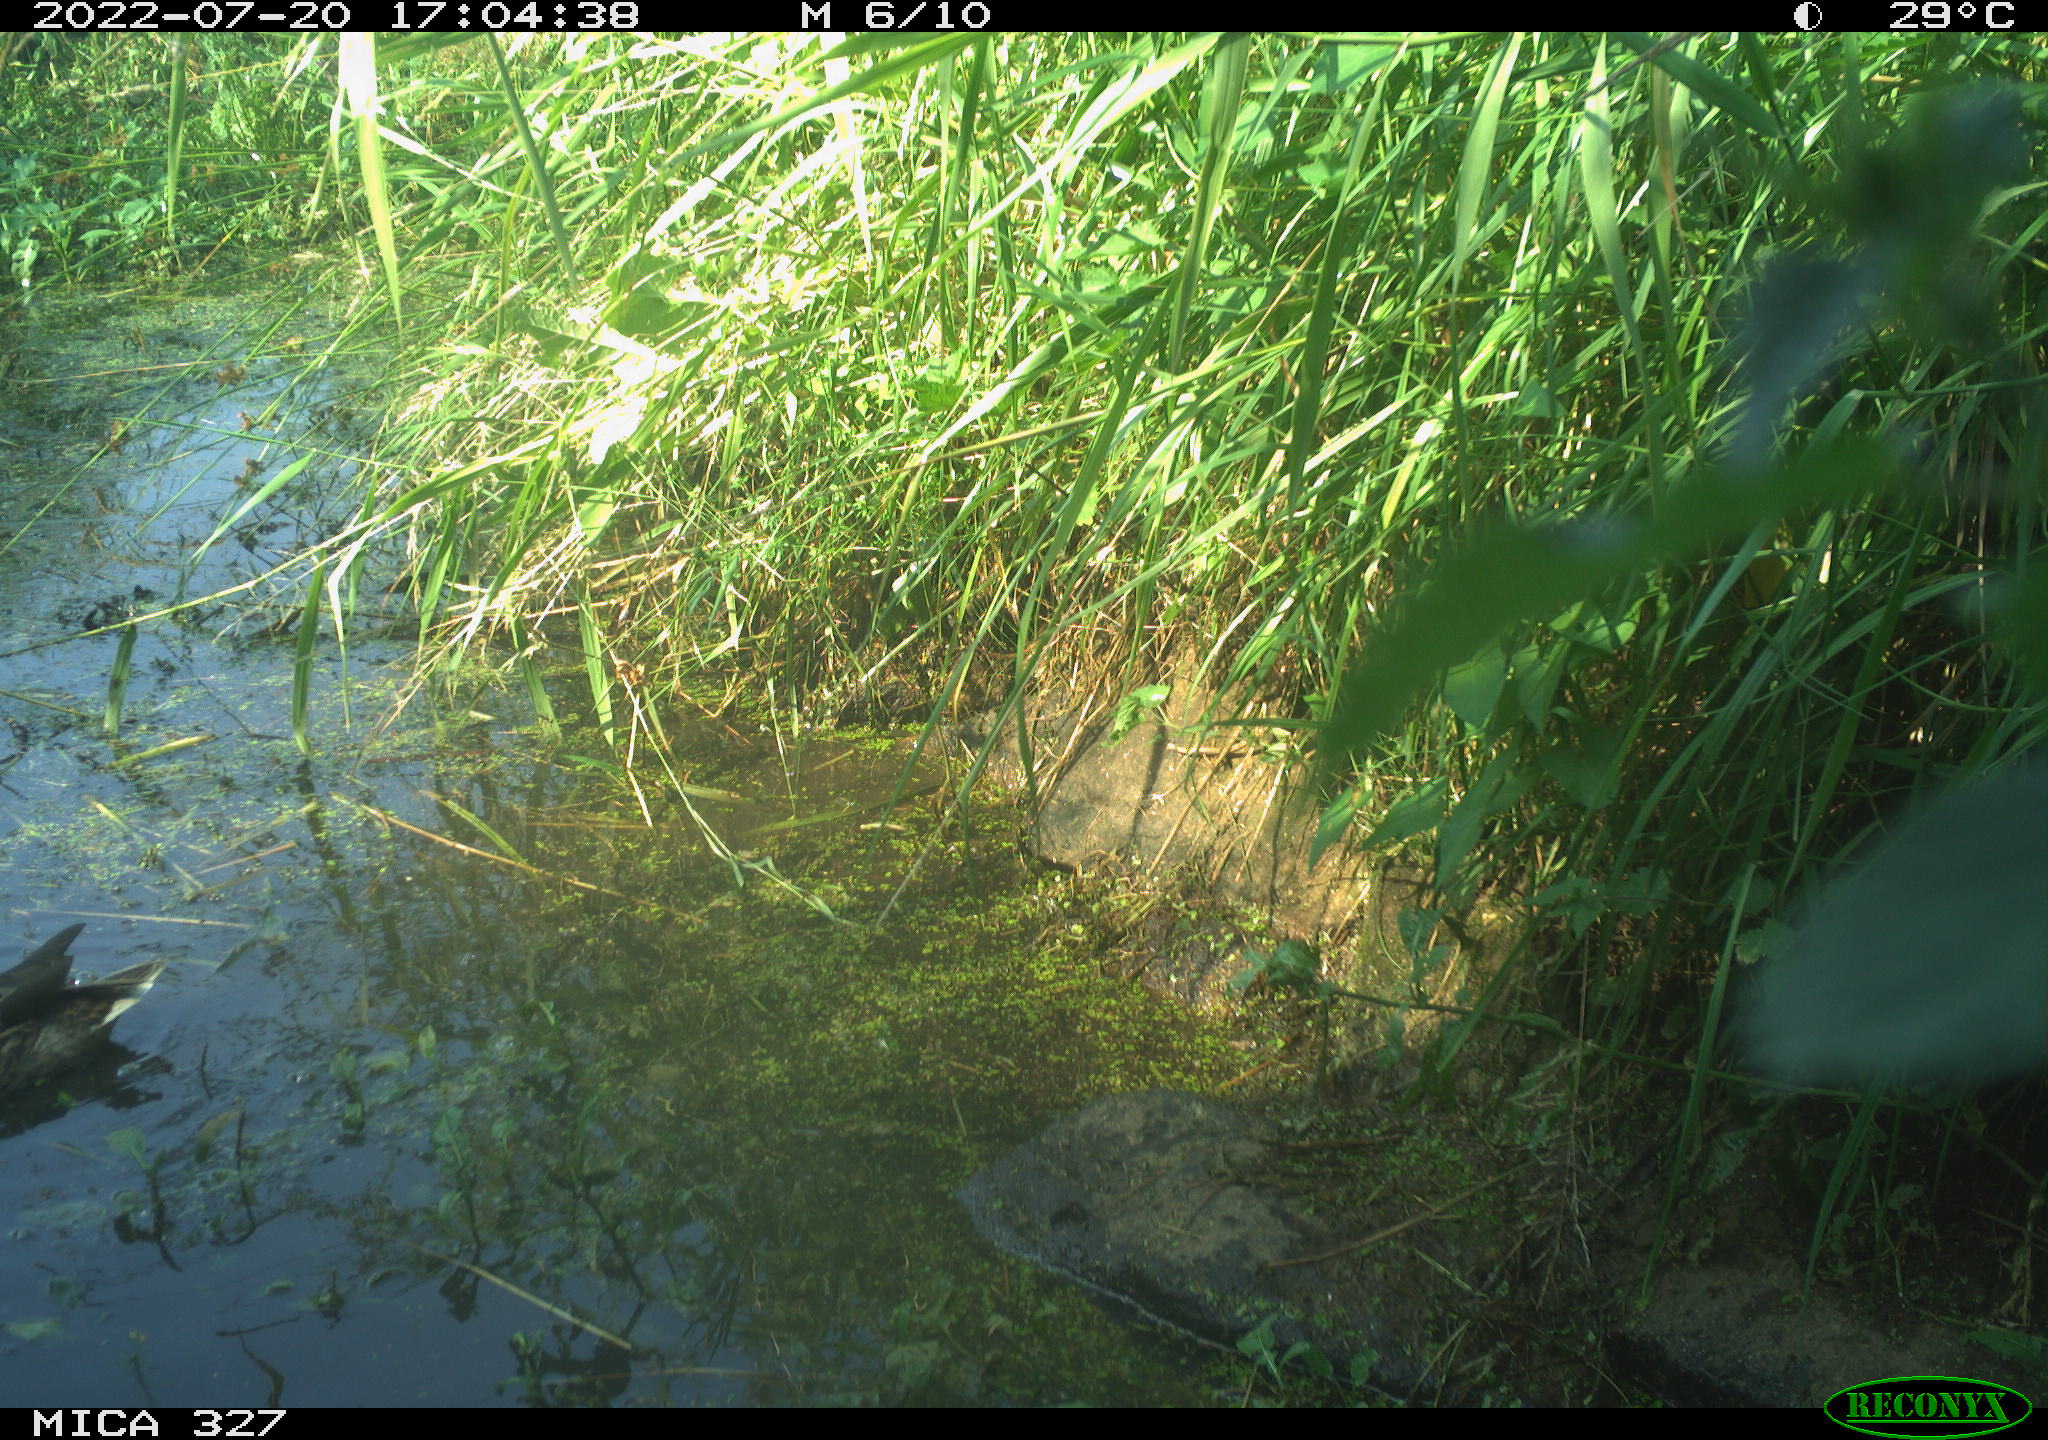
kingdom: Animalia
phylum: Chordata
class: Aves
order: Anseriformes
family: Anatidae
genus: Anas
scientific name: Anas
